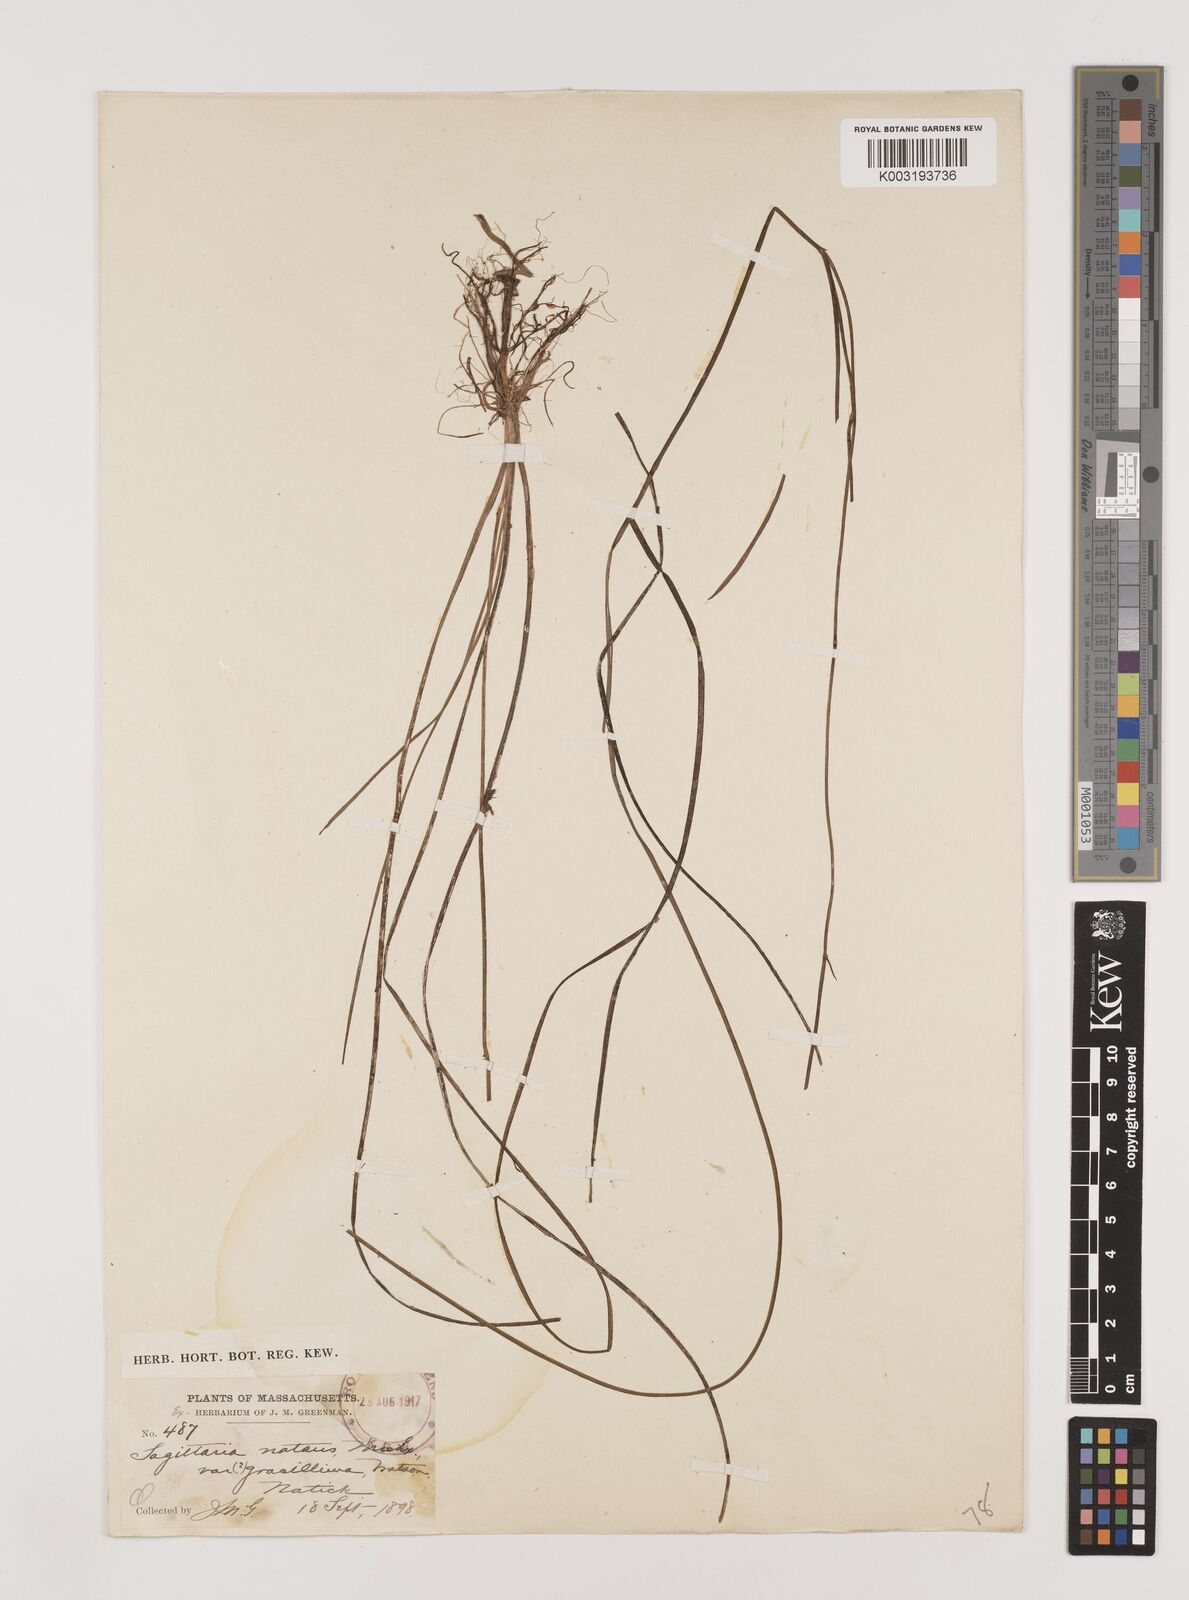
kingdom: Plantae
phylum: Tracheophyta
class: Liliopsida
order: Alismatales
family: Alismataceae
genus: Sagittaria
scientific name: Sagittaria filiformis
